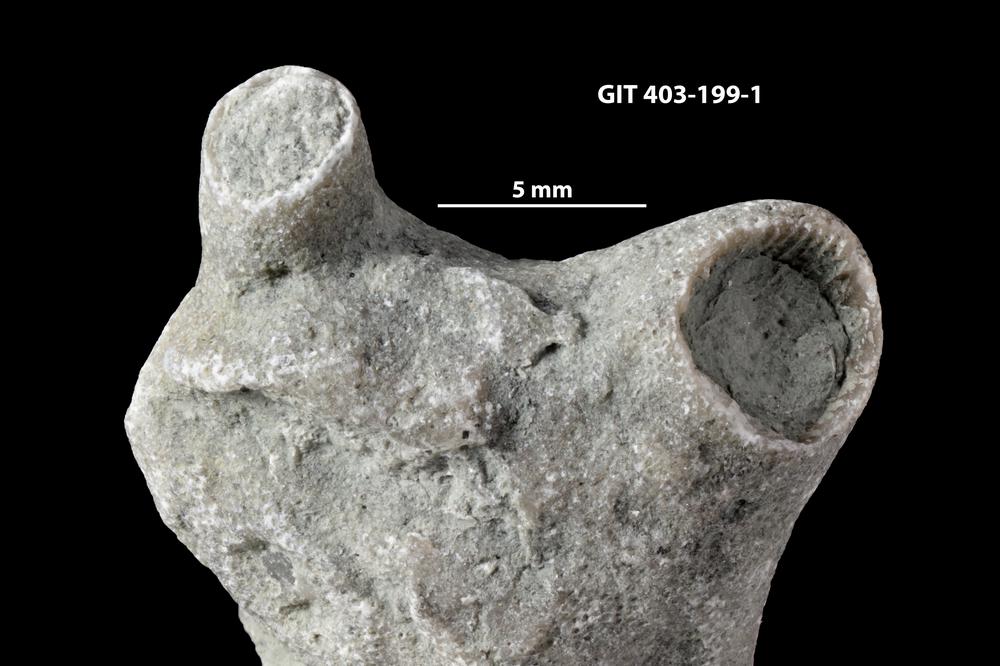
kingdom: Animalia
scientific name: Animalia
